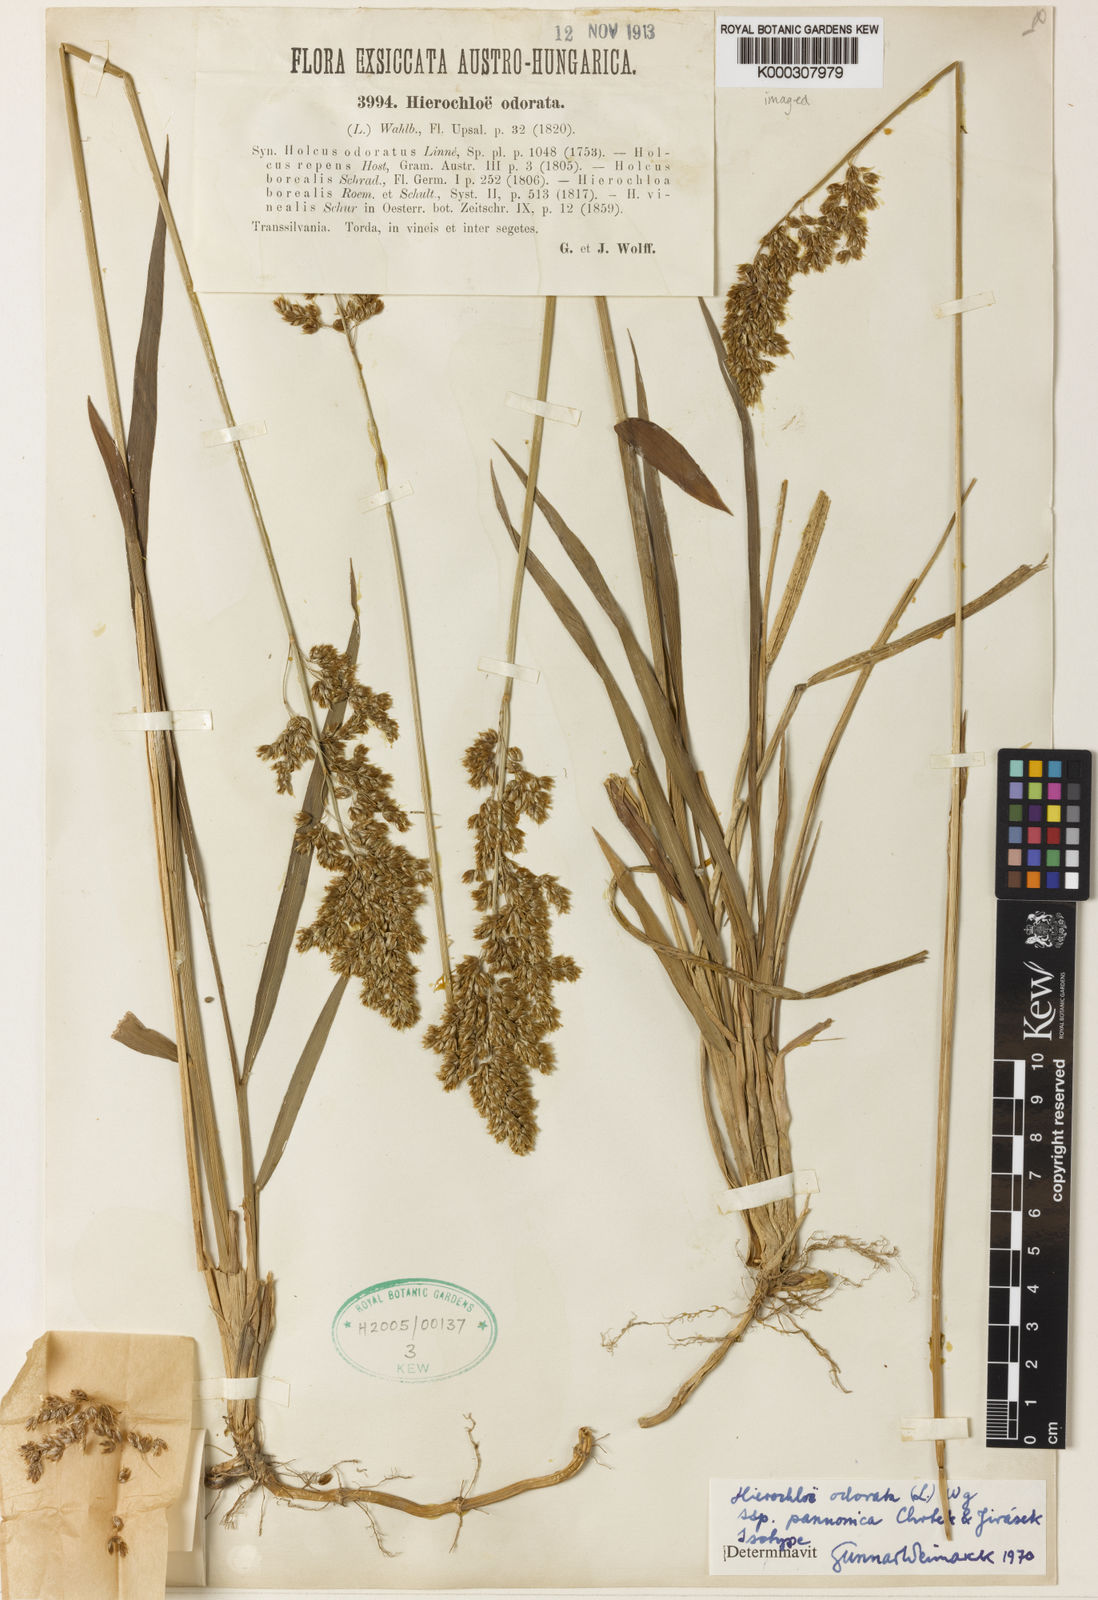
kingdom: Plantae
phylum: Tracheophyta
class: Liliopsida
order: Poales
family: Poaceae
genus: Hierochloe
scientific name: Hierochloe
